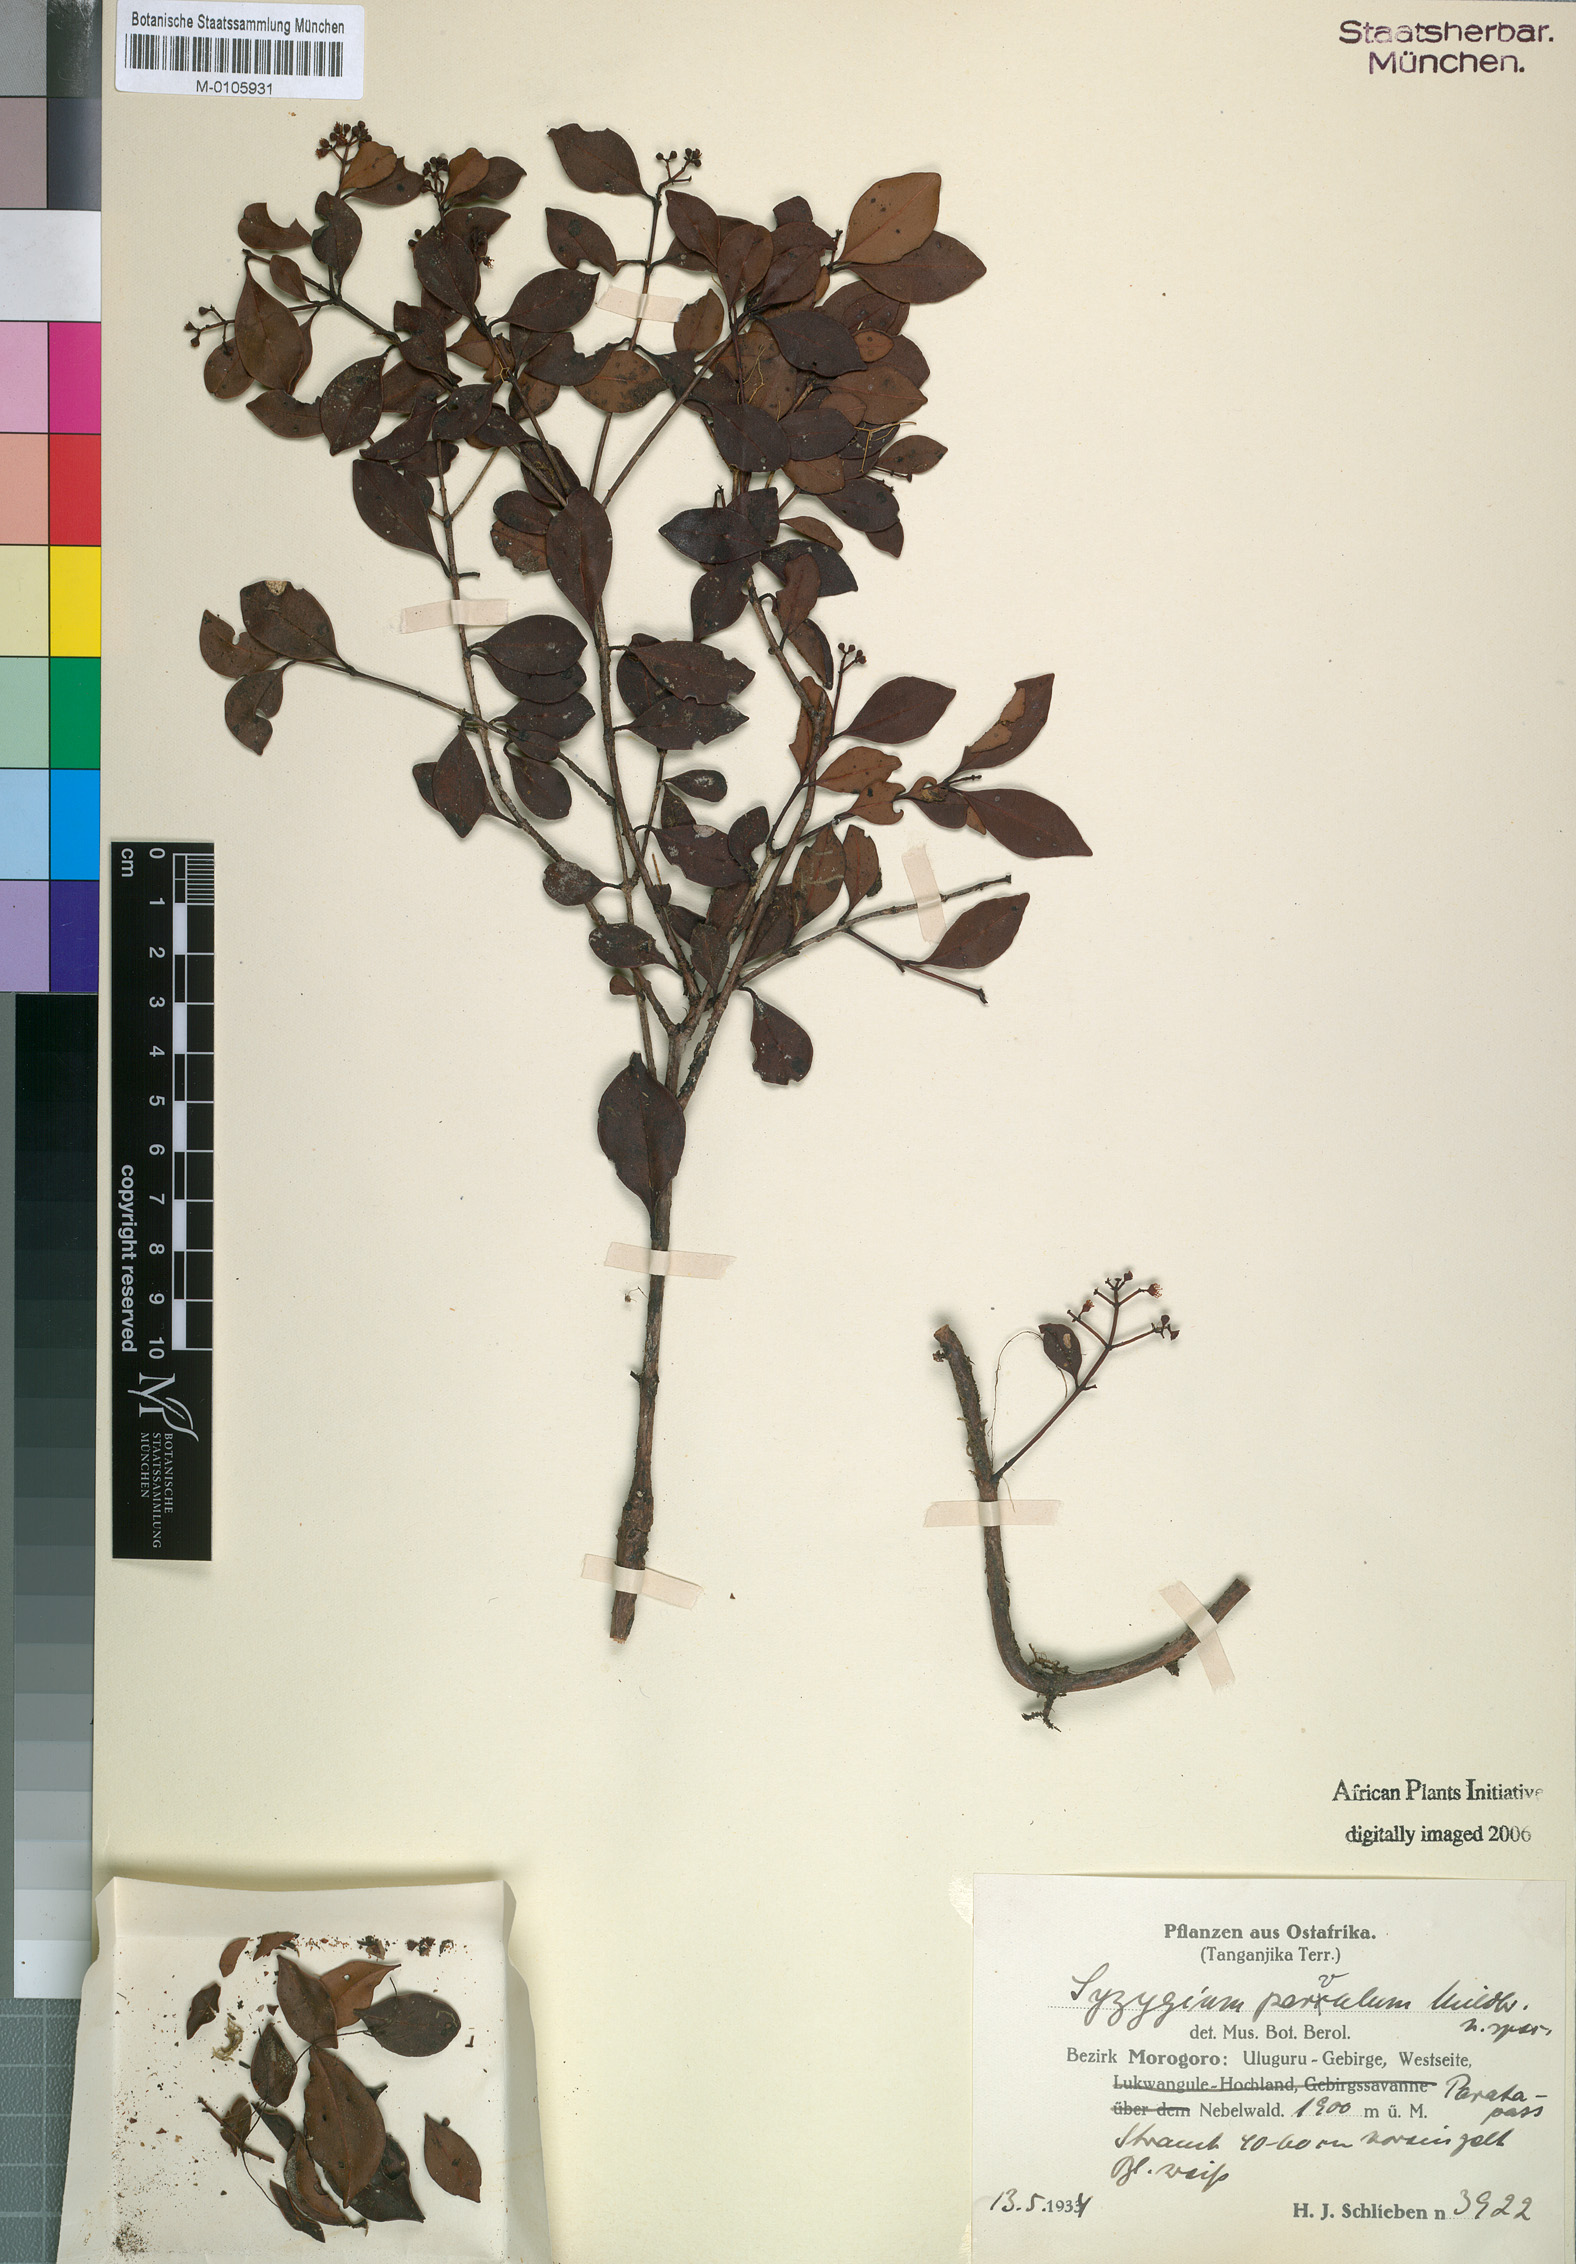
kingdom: Plantae
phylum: Tracheophyta
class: Magnoliopsida
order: Myrtales
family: Myrtaceae
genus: Syzygium
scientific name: Syzygium parvulum
